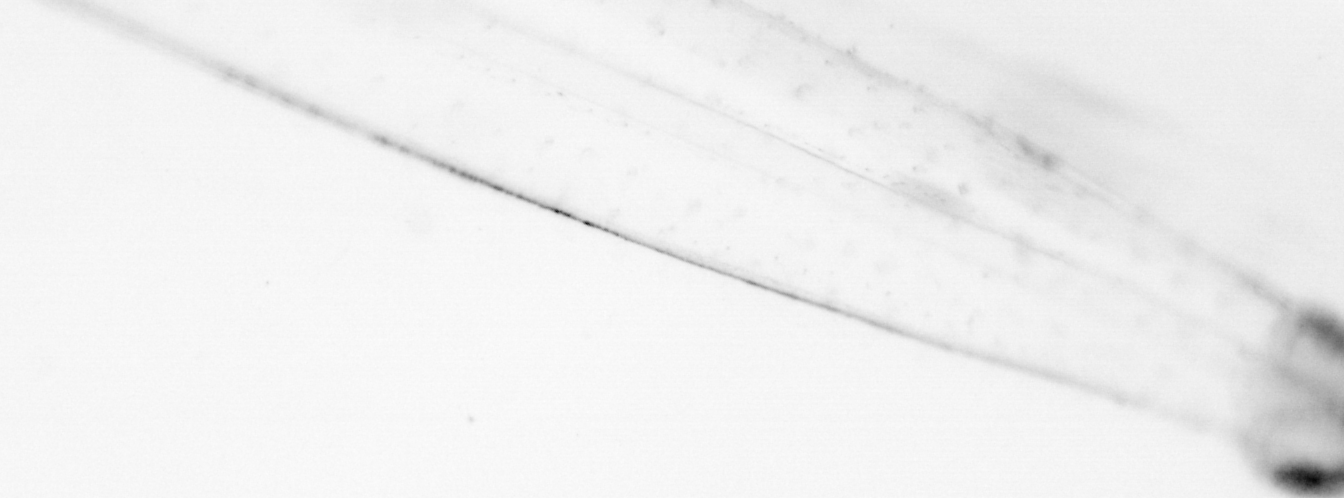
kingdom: Animalia
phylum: Chaetognatha
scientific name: Chaetognatha
